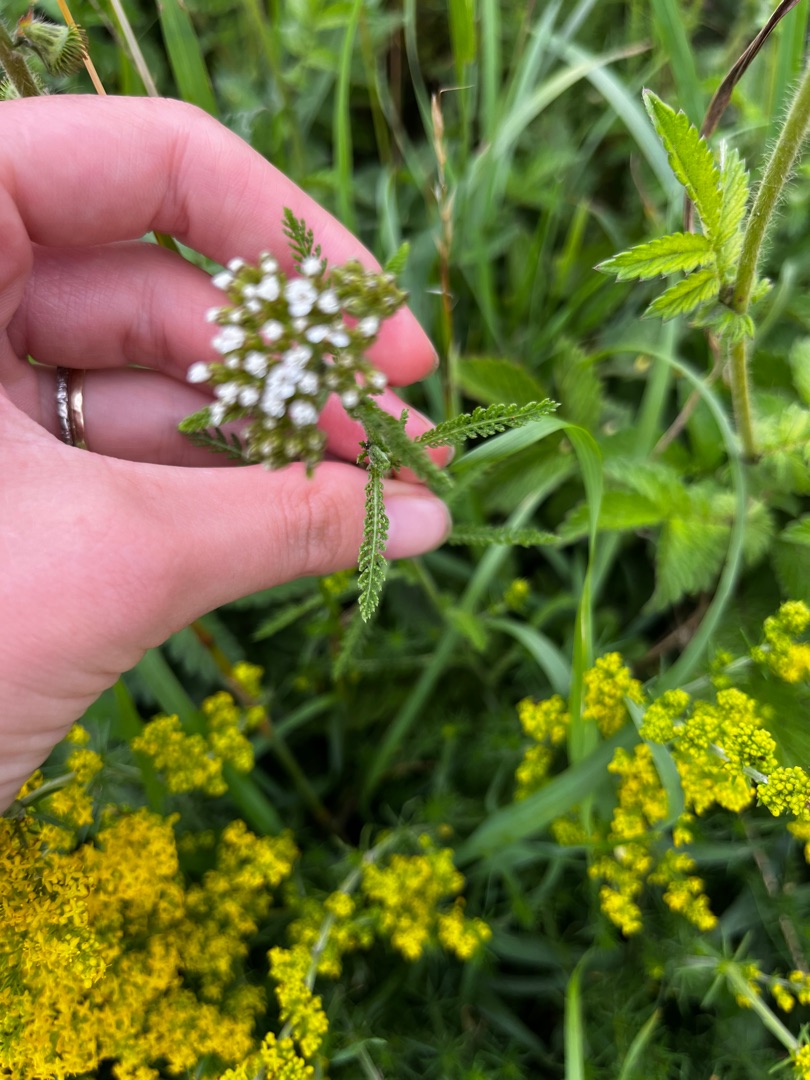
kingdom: Plantae
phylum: Tracheophyta
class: Magnoliopsida
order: Asterales
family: Asteraceae
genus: Achillea
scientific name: Achillea millefolium
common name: Almindelig røllike
